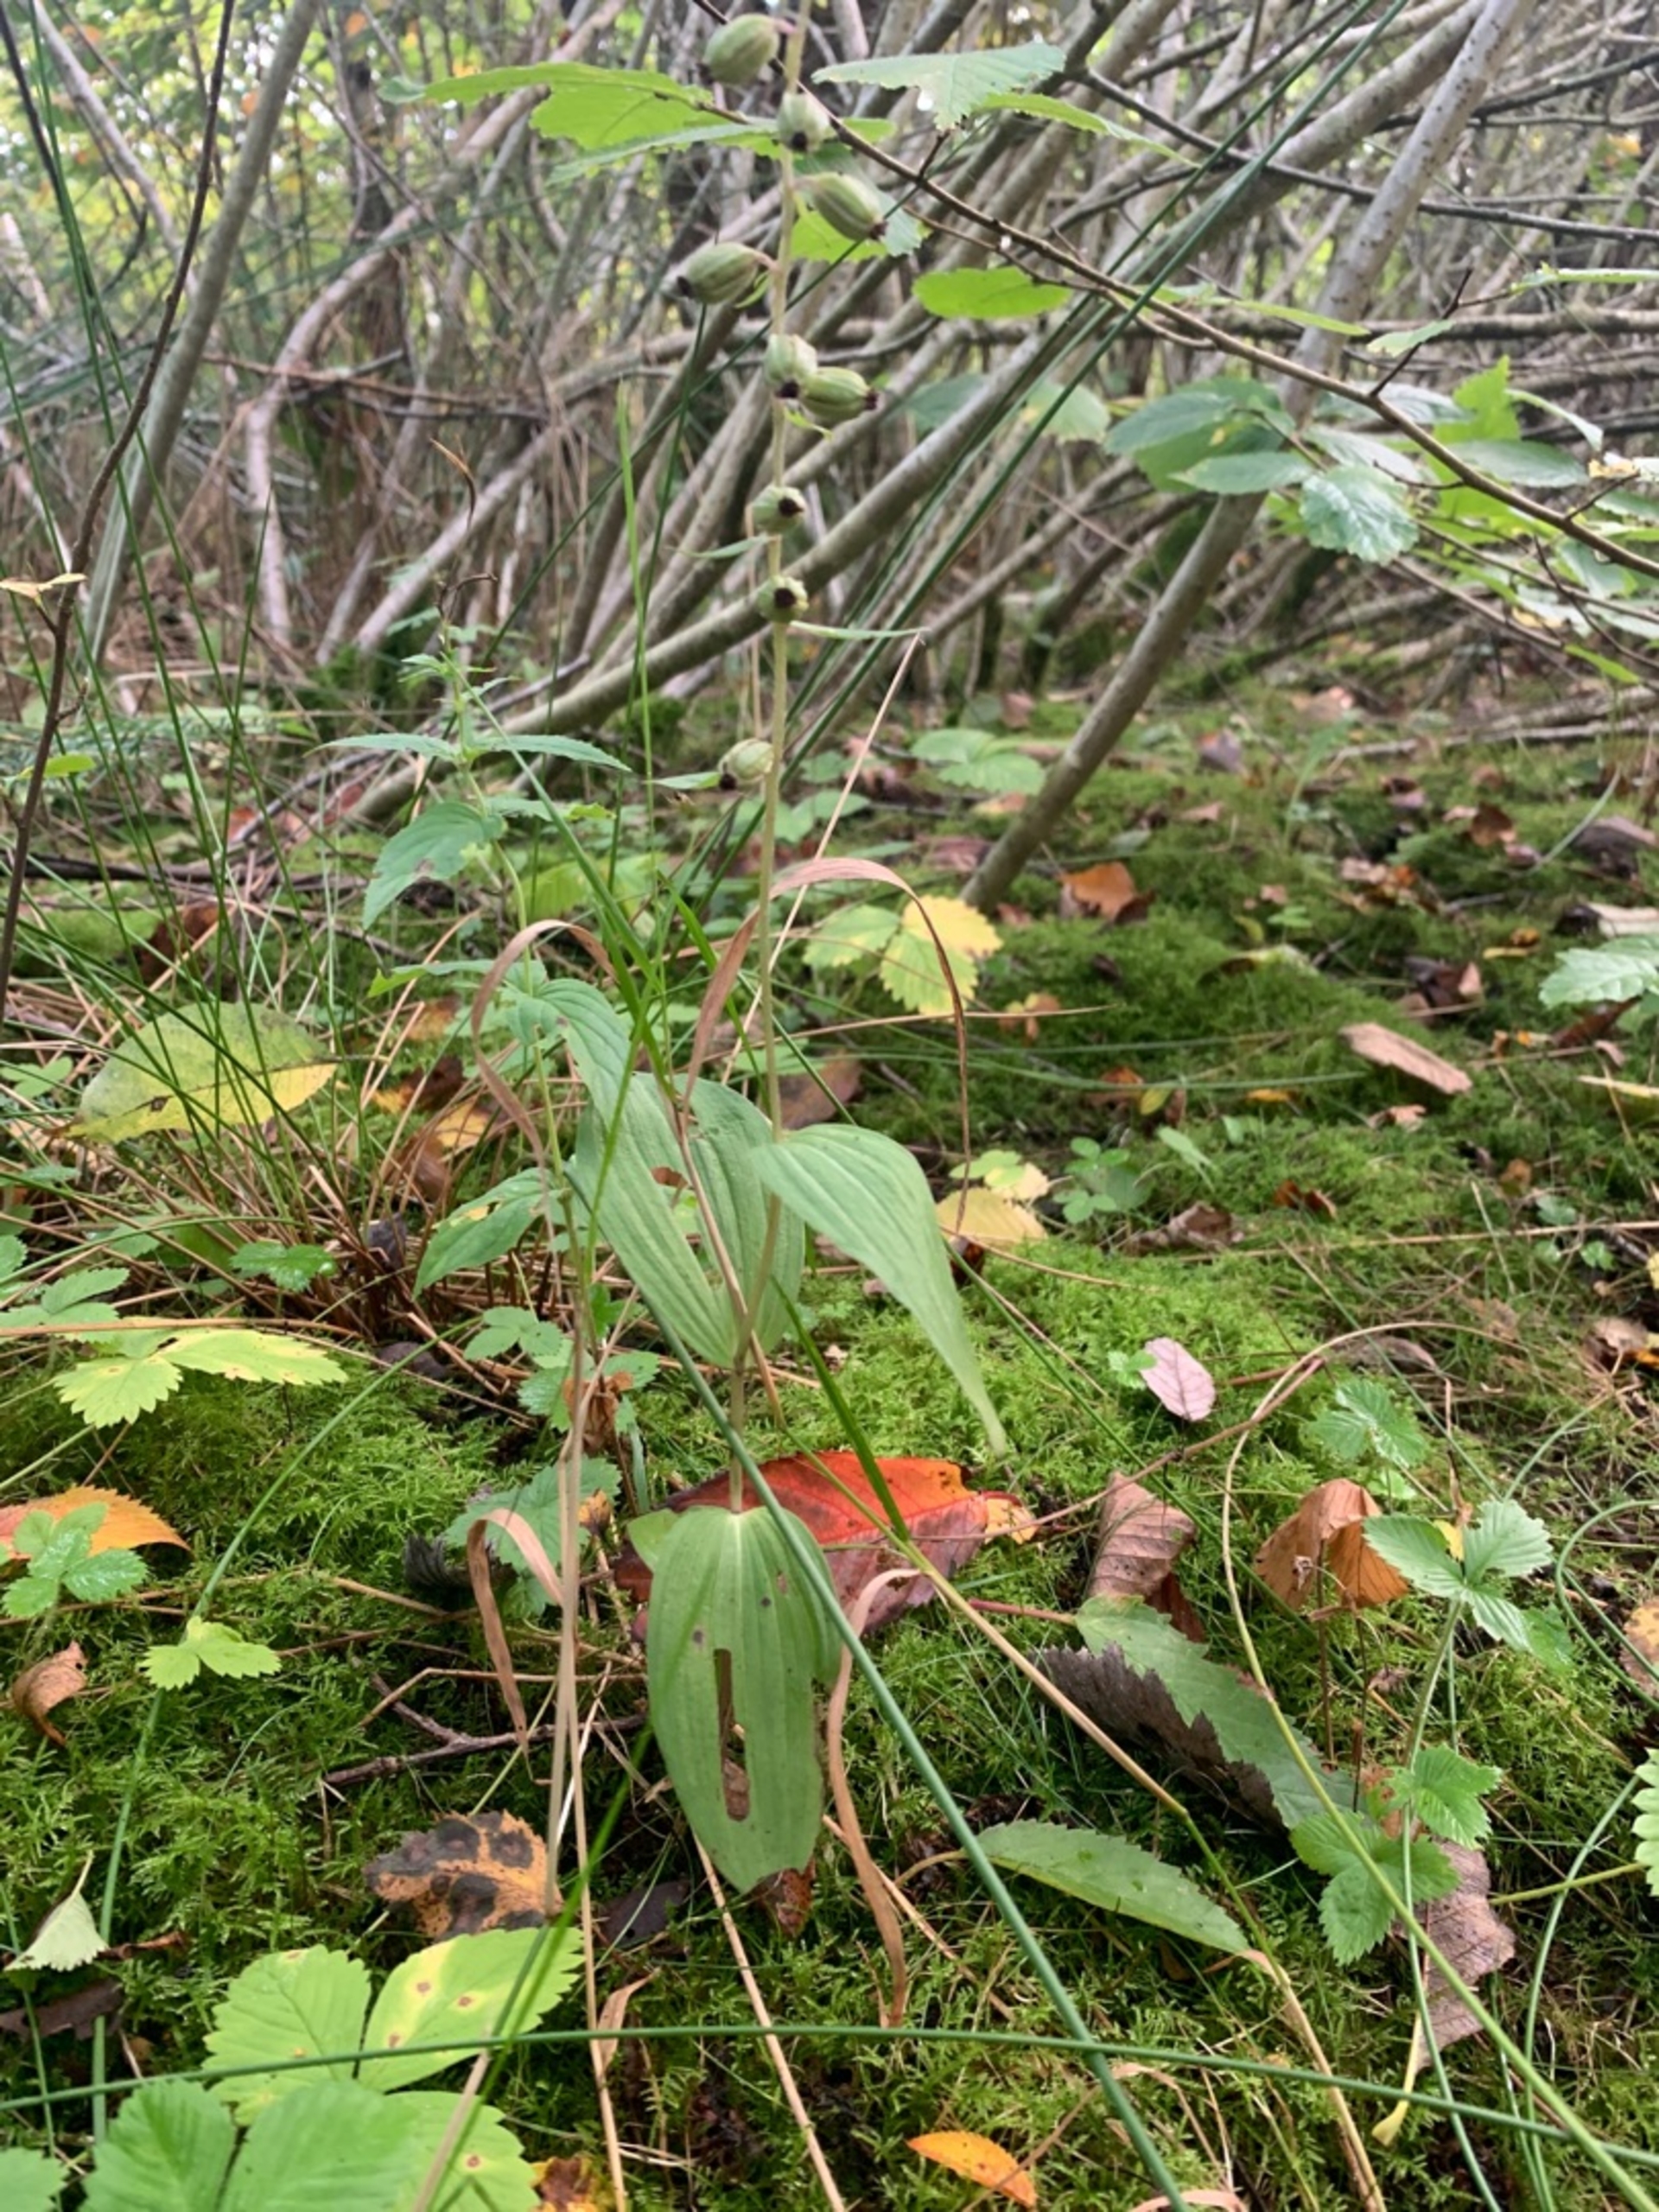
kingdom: Plantae
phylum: Tracheophyta
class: Liliopsida
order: Asparagales
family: Orchidaceae
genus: Epipactis
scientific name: Epipactis helleborine
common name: Skov-hullæbe
